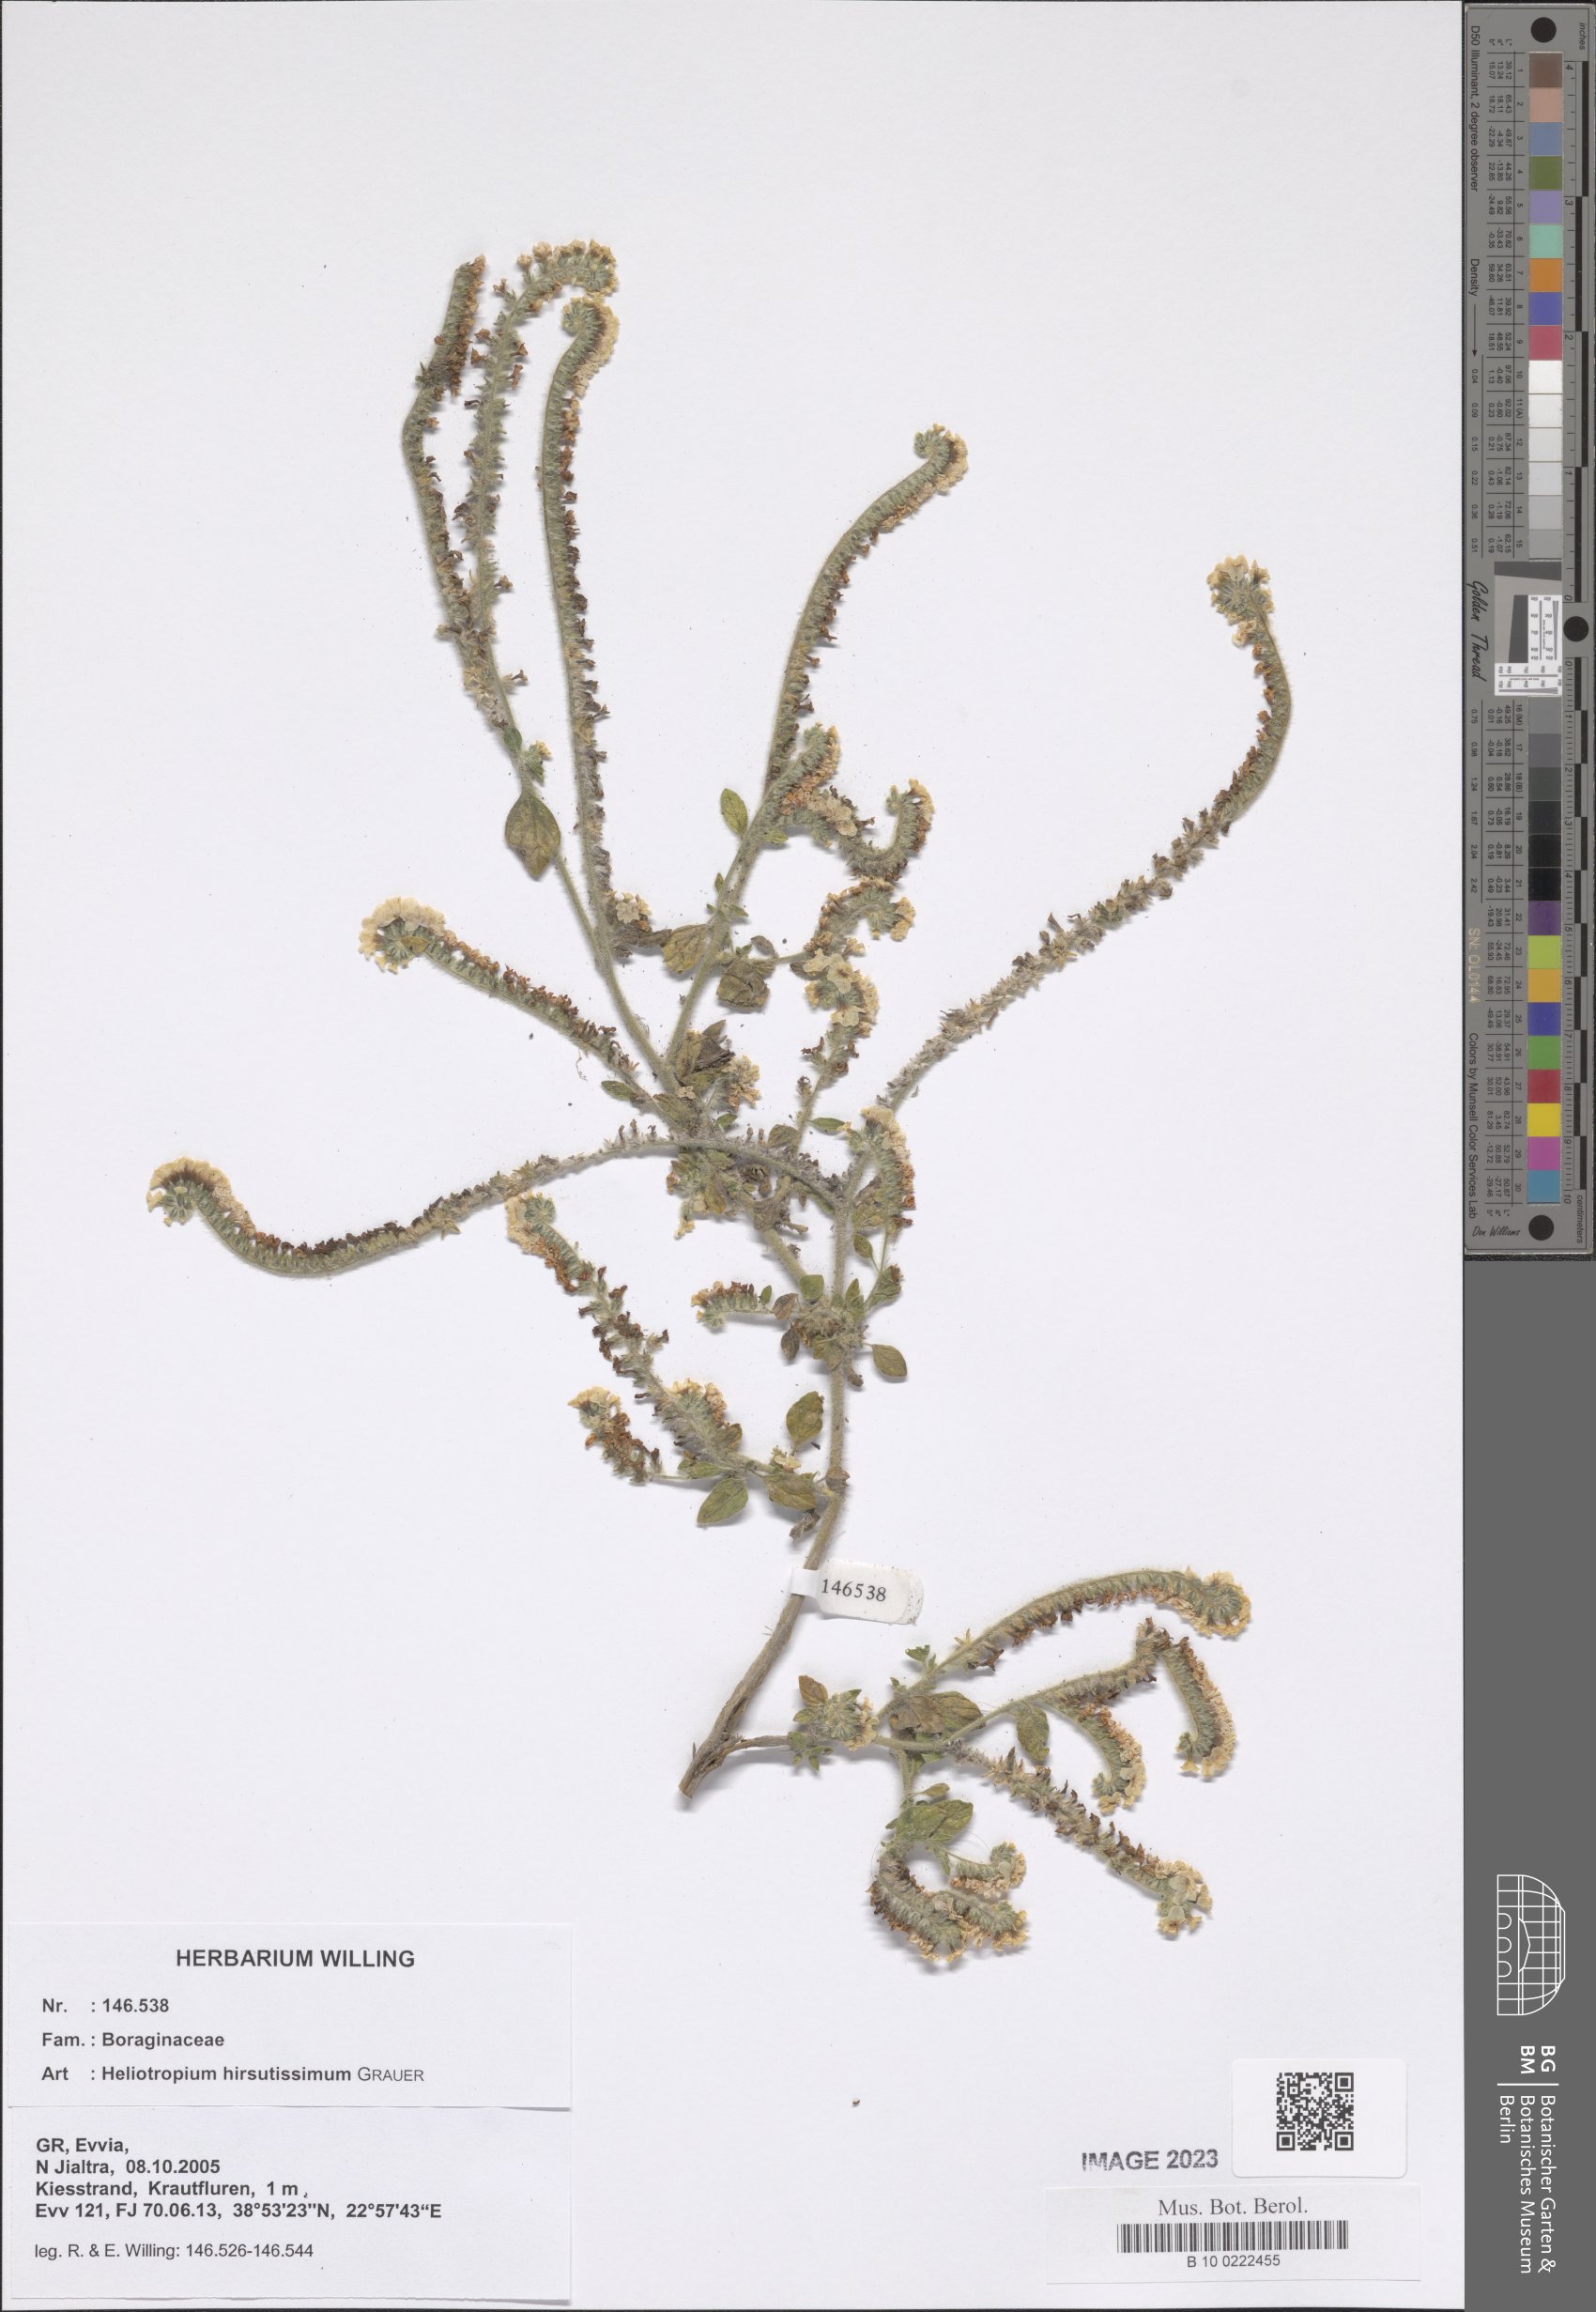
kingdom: Plantae
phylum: Tracheophyta
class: Magnoliopsida
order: Boraginales
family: Heliotropiaceae
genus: Heliotropium
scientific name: Heliotropium hirsutissimum
